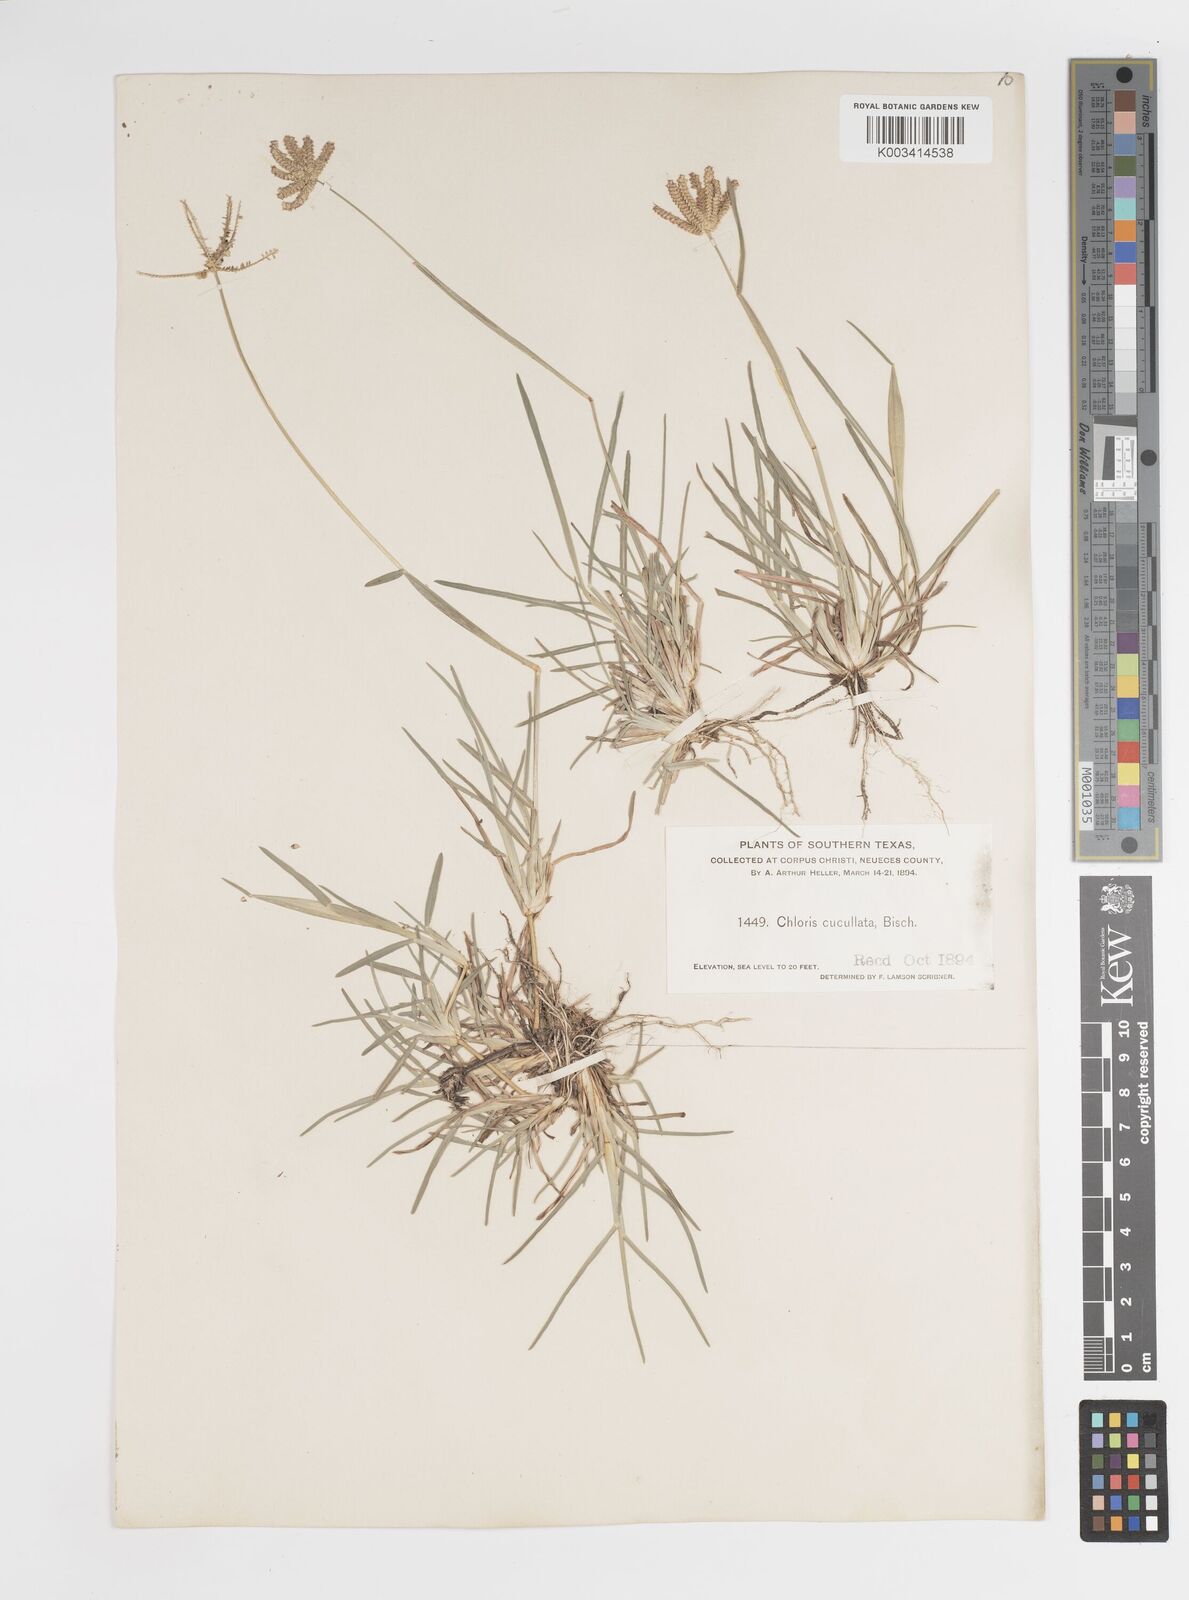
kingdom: Plantae
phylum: Tracheophyta
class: Liliopsida
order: Poales
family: Poaceae
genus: Chloris
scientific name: Chloris cucullata
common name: Hooded windmill grass
